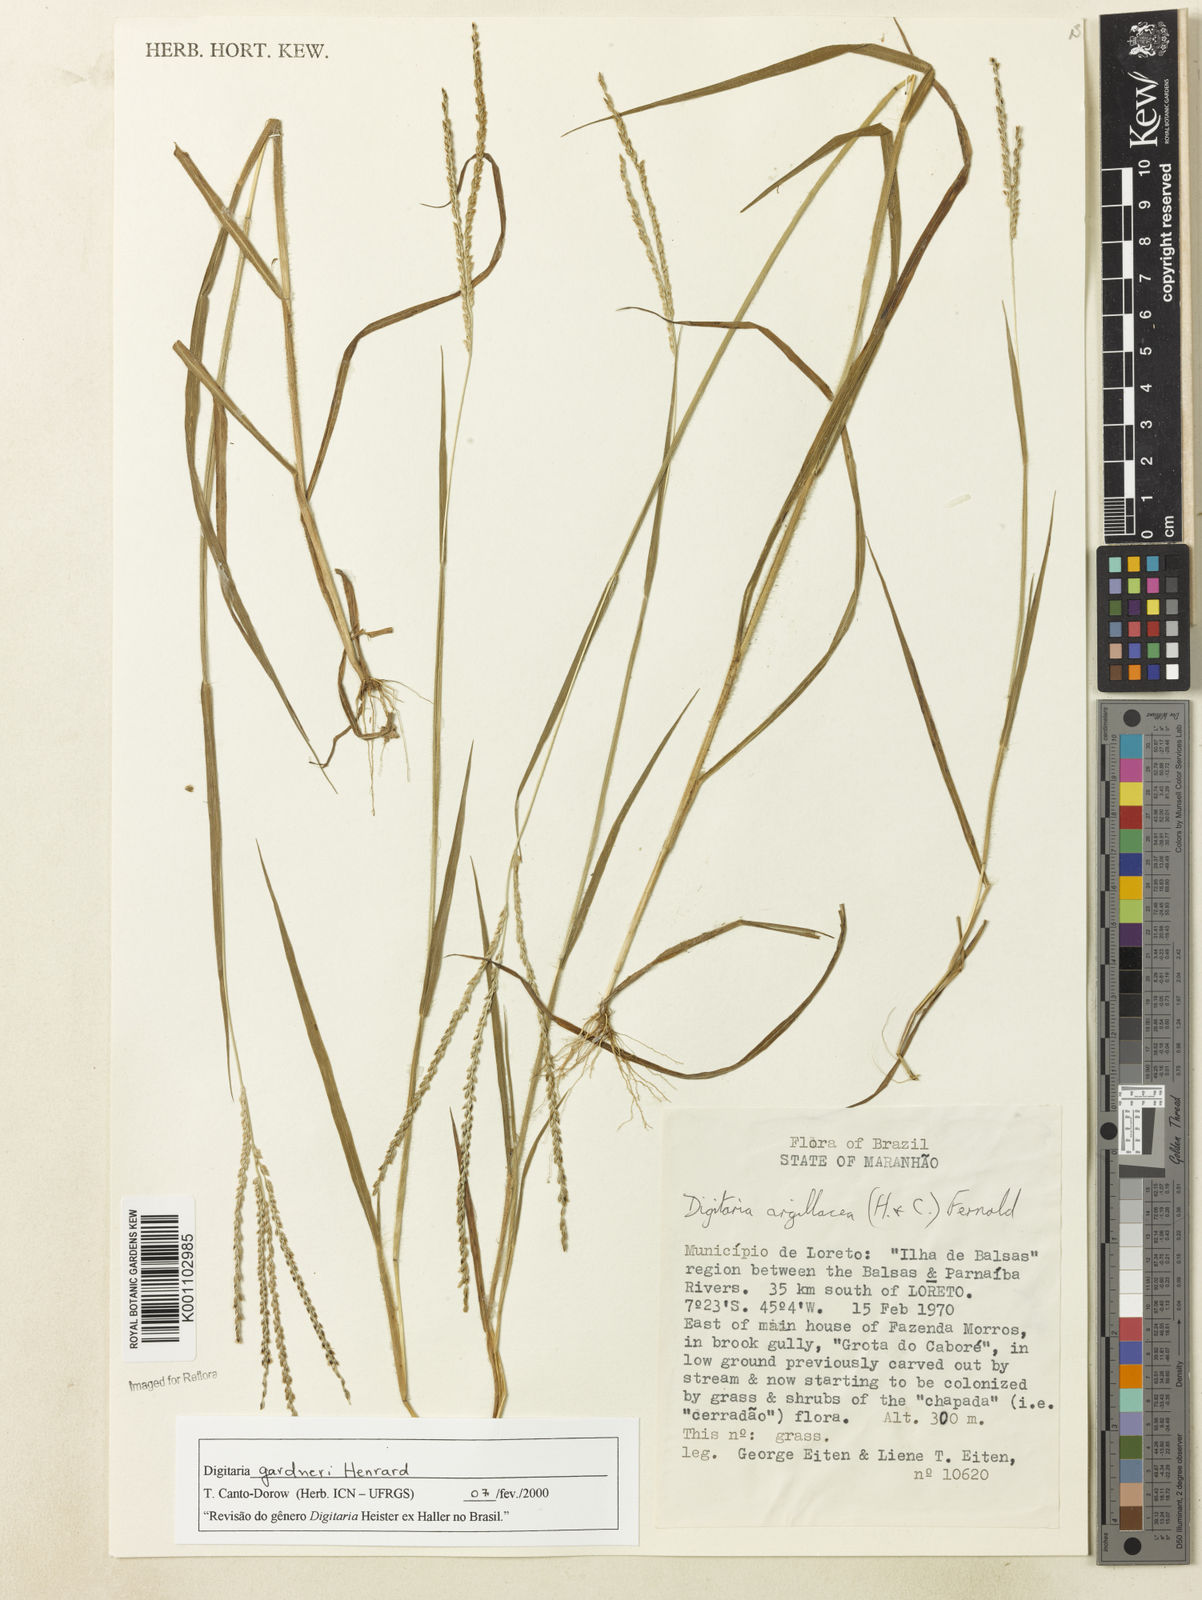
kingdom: Plantae
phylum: Tracheophyta
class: Liliopsida
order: Poales
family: Poaceae
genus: Digitaria
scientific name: Digitaria gardneri
